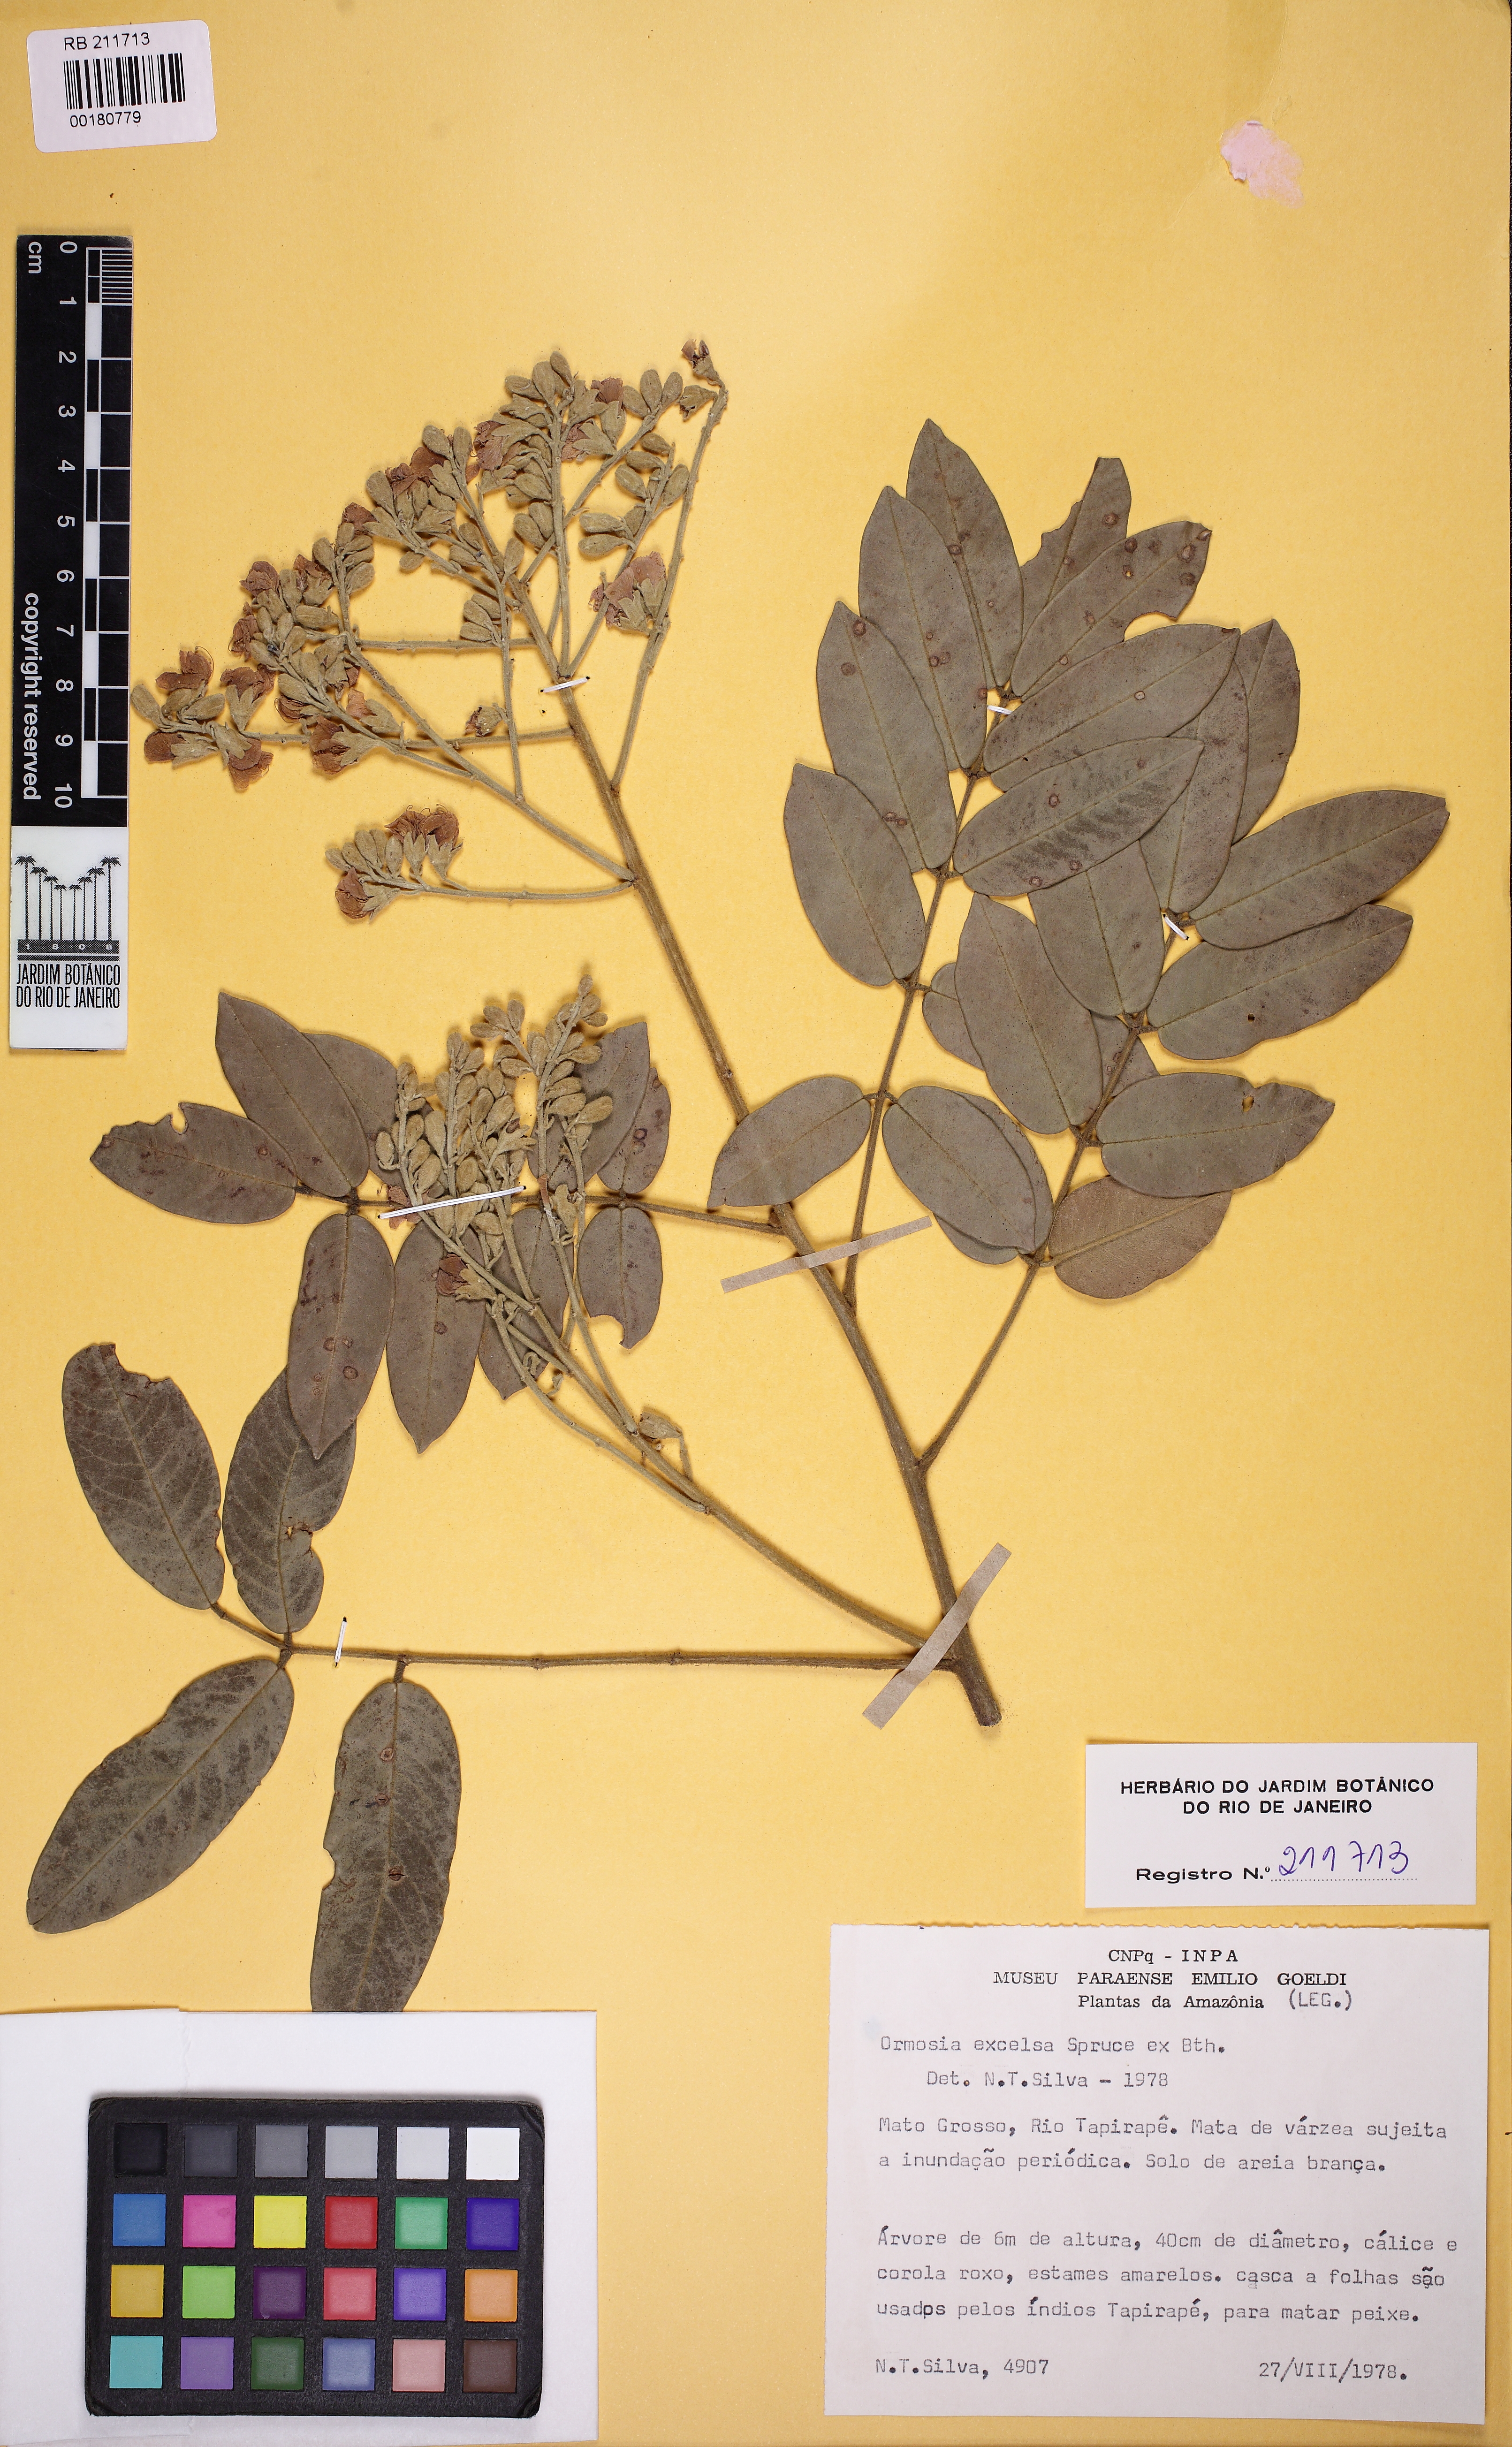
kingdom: Plantae
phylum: Tracheophyta
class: Magnoliopsida
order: Fabales
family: Fabaceae
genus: Ormosia
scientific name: Ormosia excelsa
